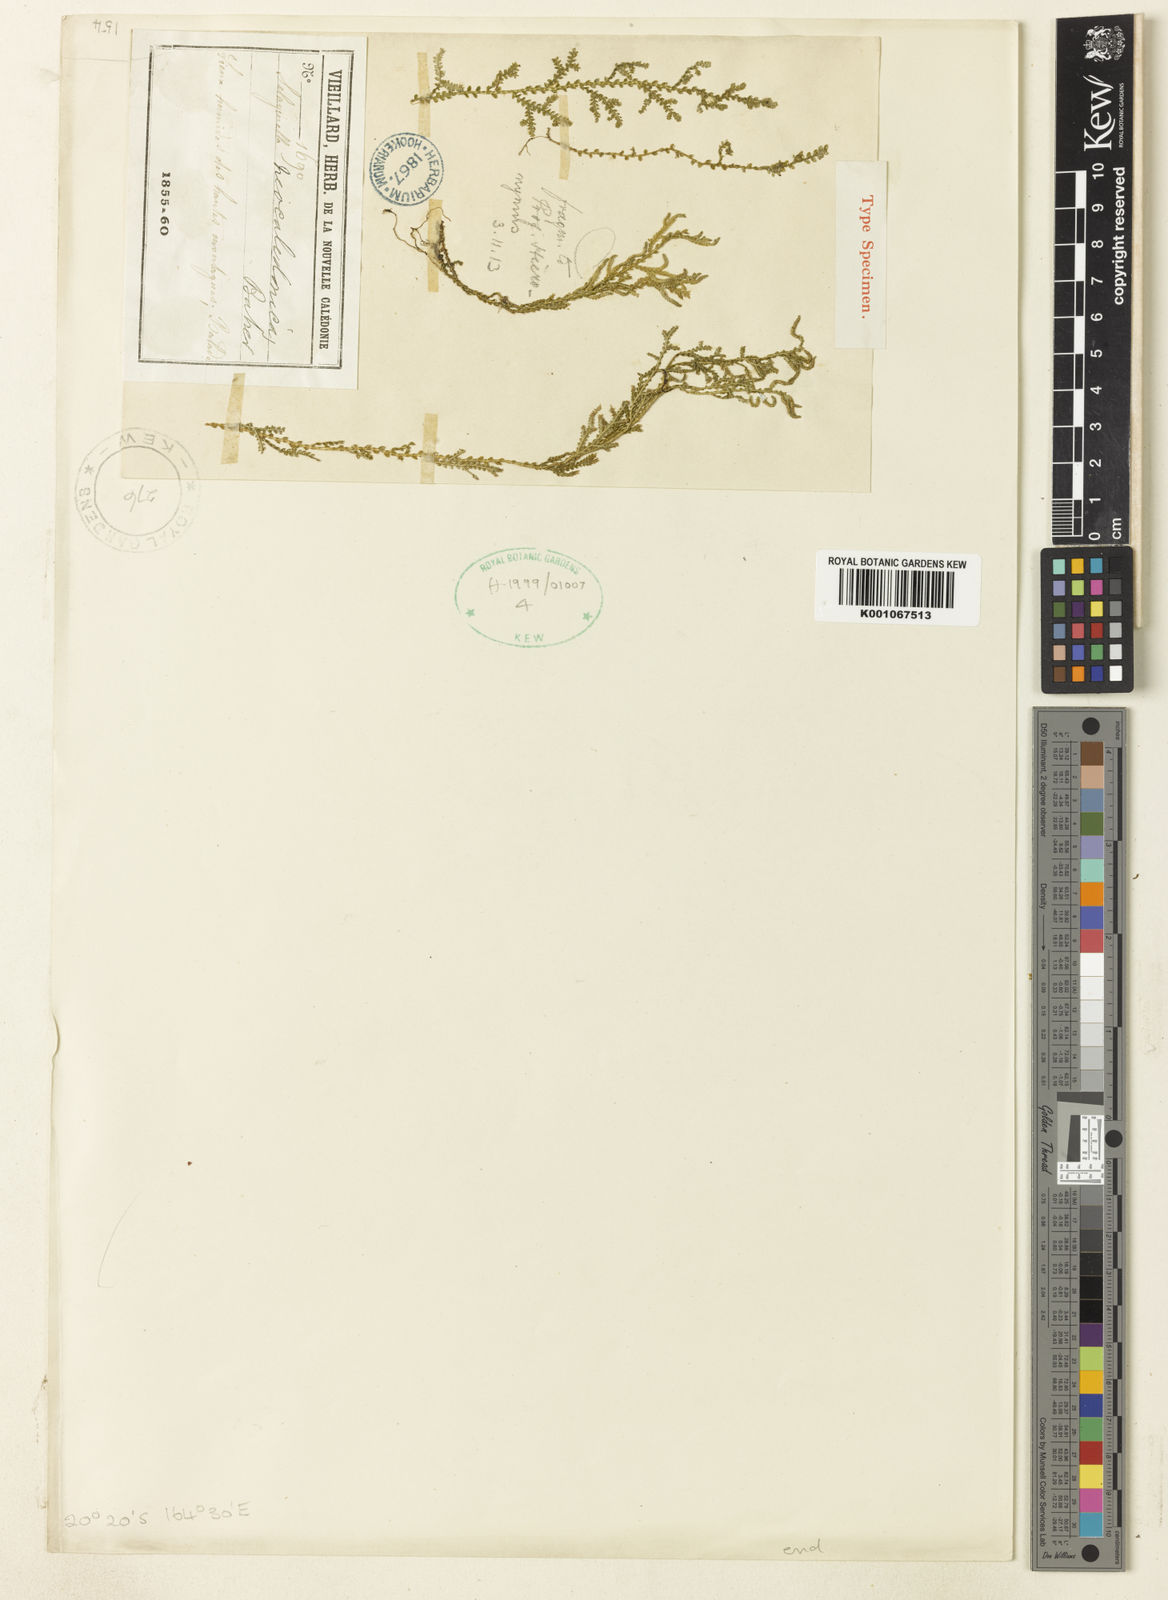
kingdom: Plantae
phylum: Tracheophyta
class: Lycopodiopsida
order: Selaginellales
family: Selaginellaceae
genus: Selaginella
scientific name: Selaginella neocaledonica
